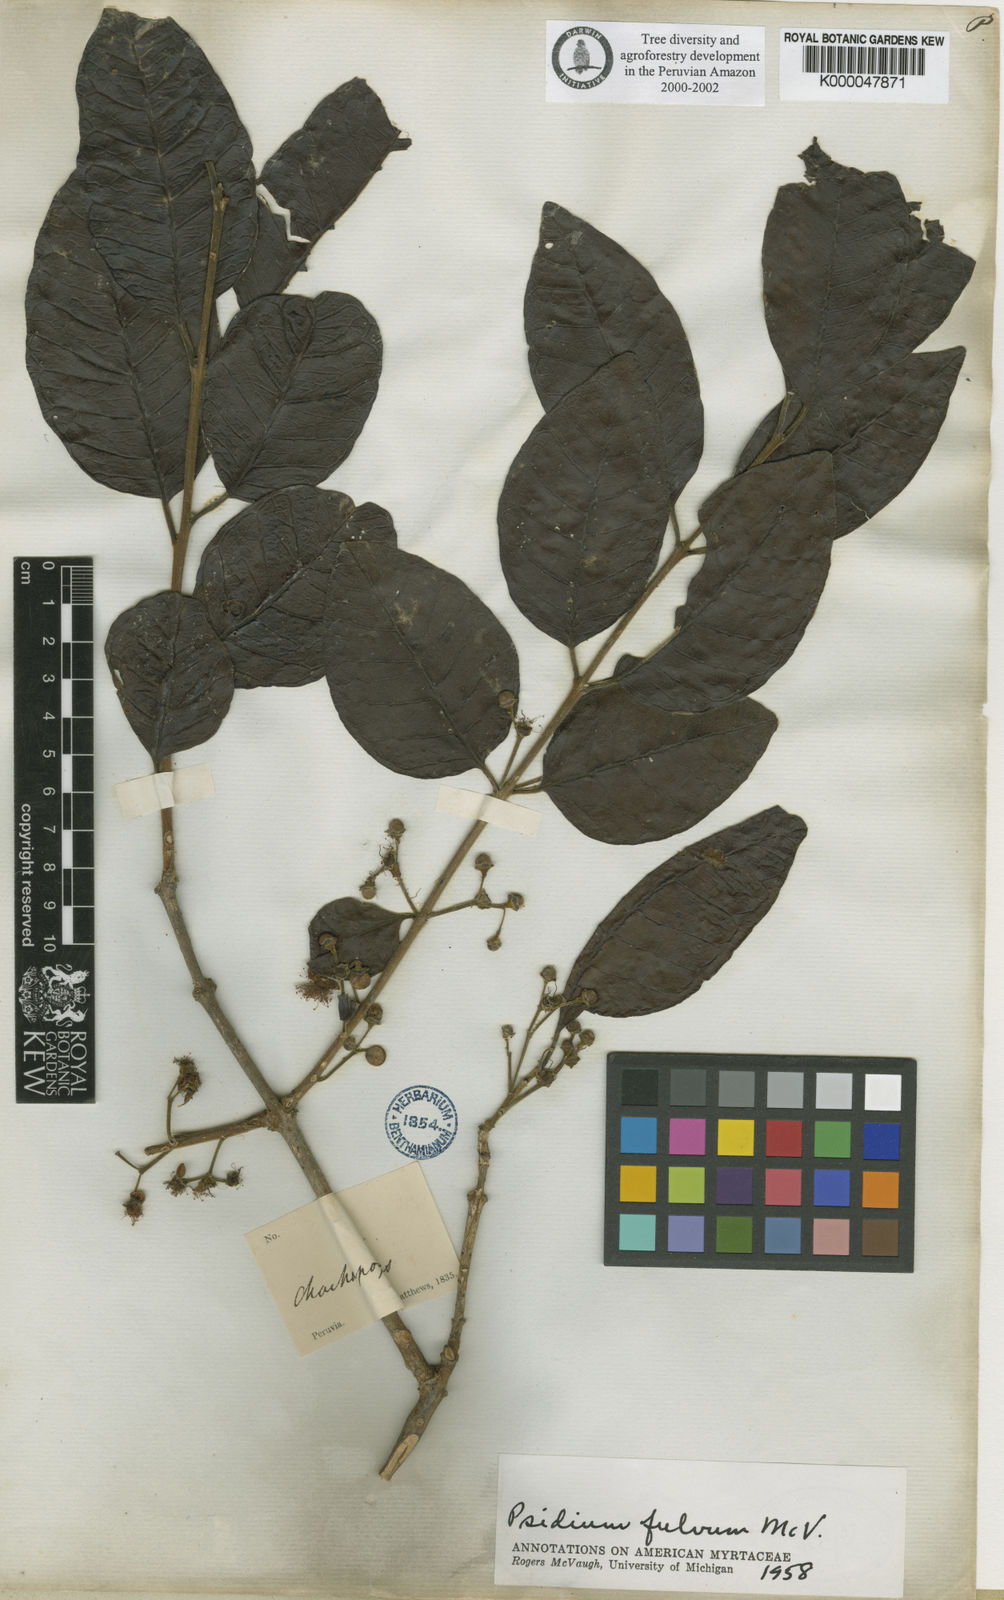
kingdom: Plantae
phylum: Tracheophyta
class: Magnoliopsida
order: Myrtales
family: Myrtaceae
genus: Psidium
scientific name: Psidium fulvum
